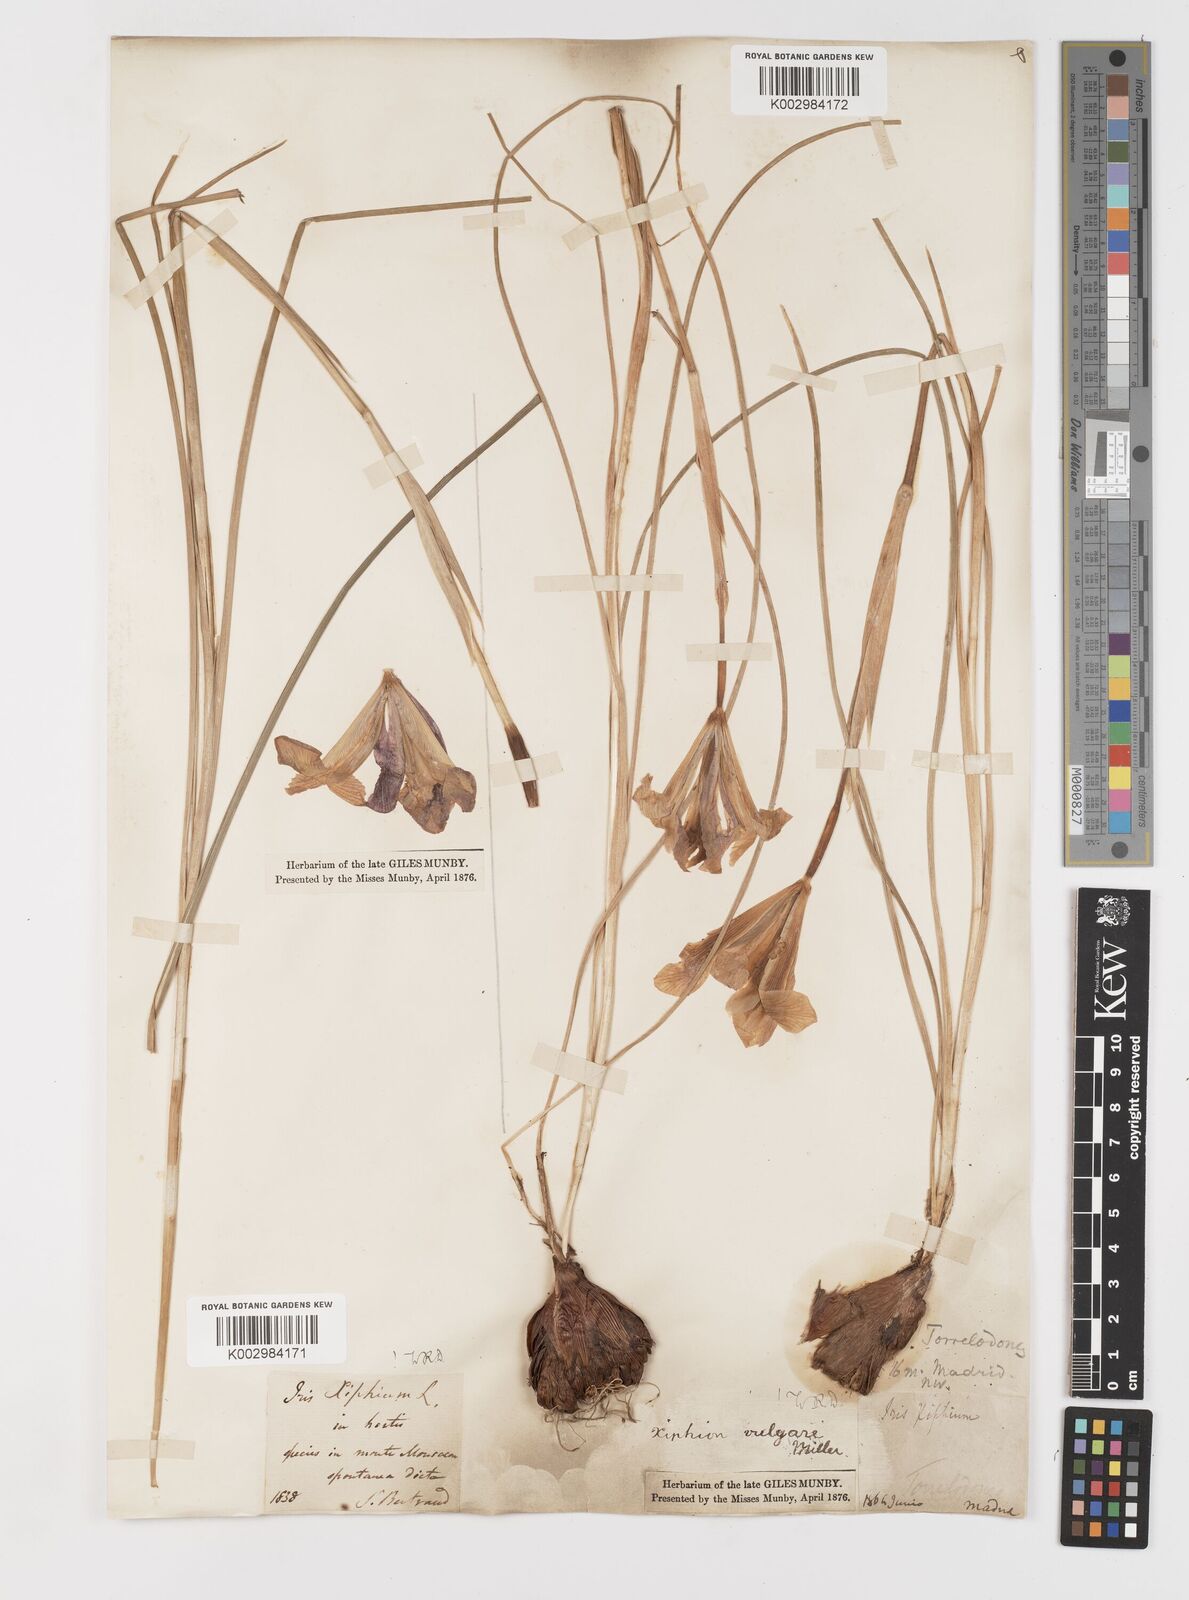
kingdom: Plantae
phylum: Tracheophyta
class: Liliopsida
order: Asparagales
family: Iridaceae
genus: Iris
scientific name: Iris xiphium
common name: Spanish iris
